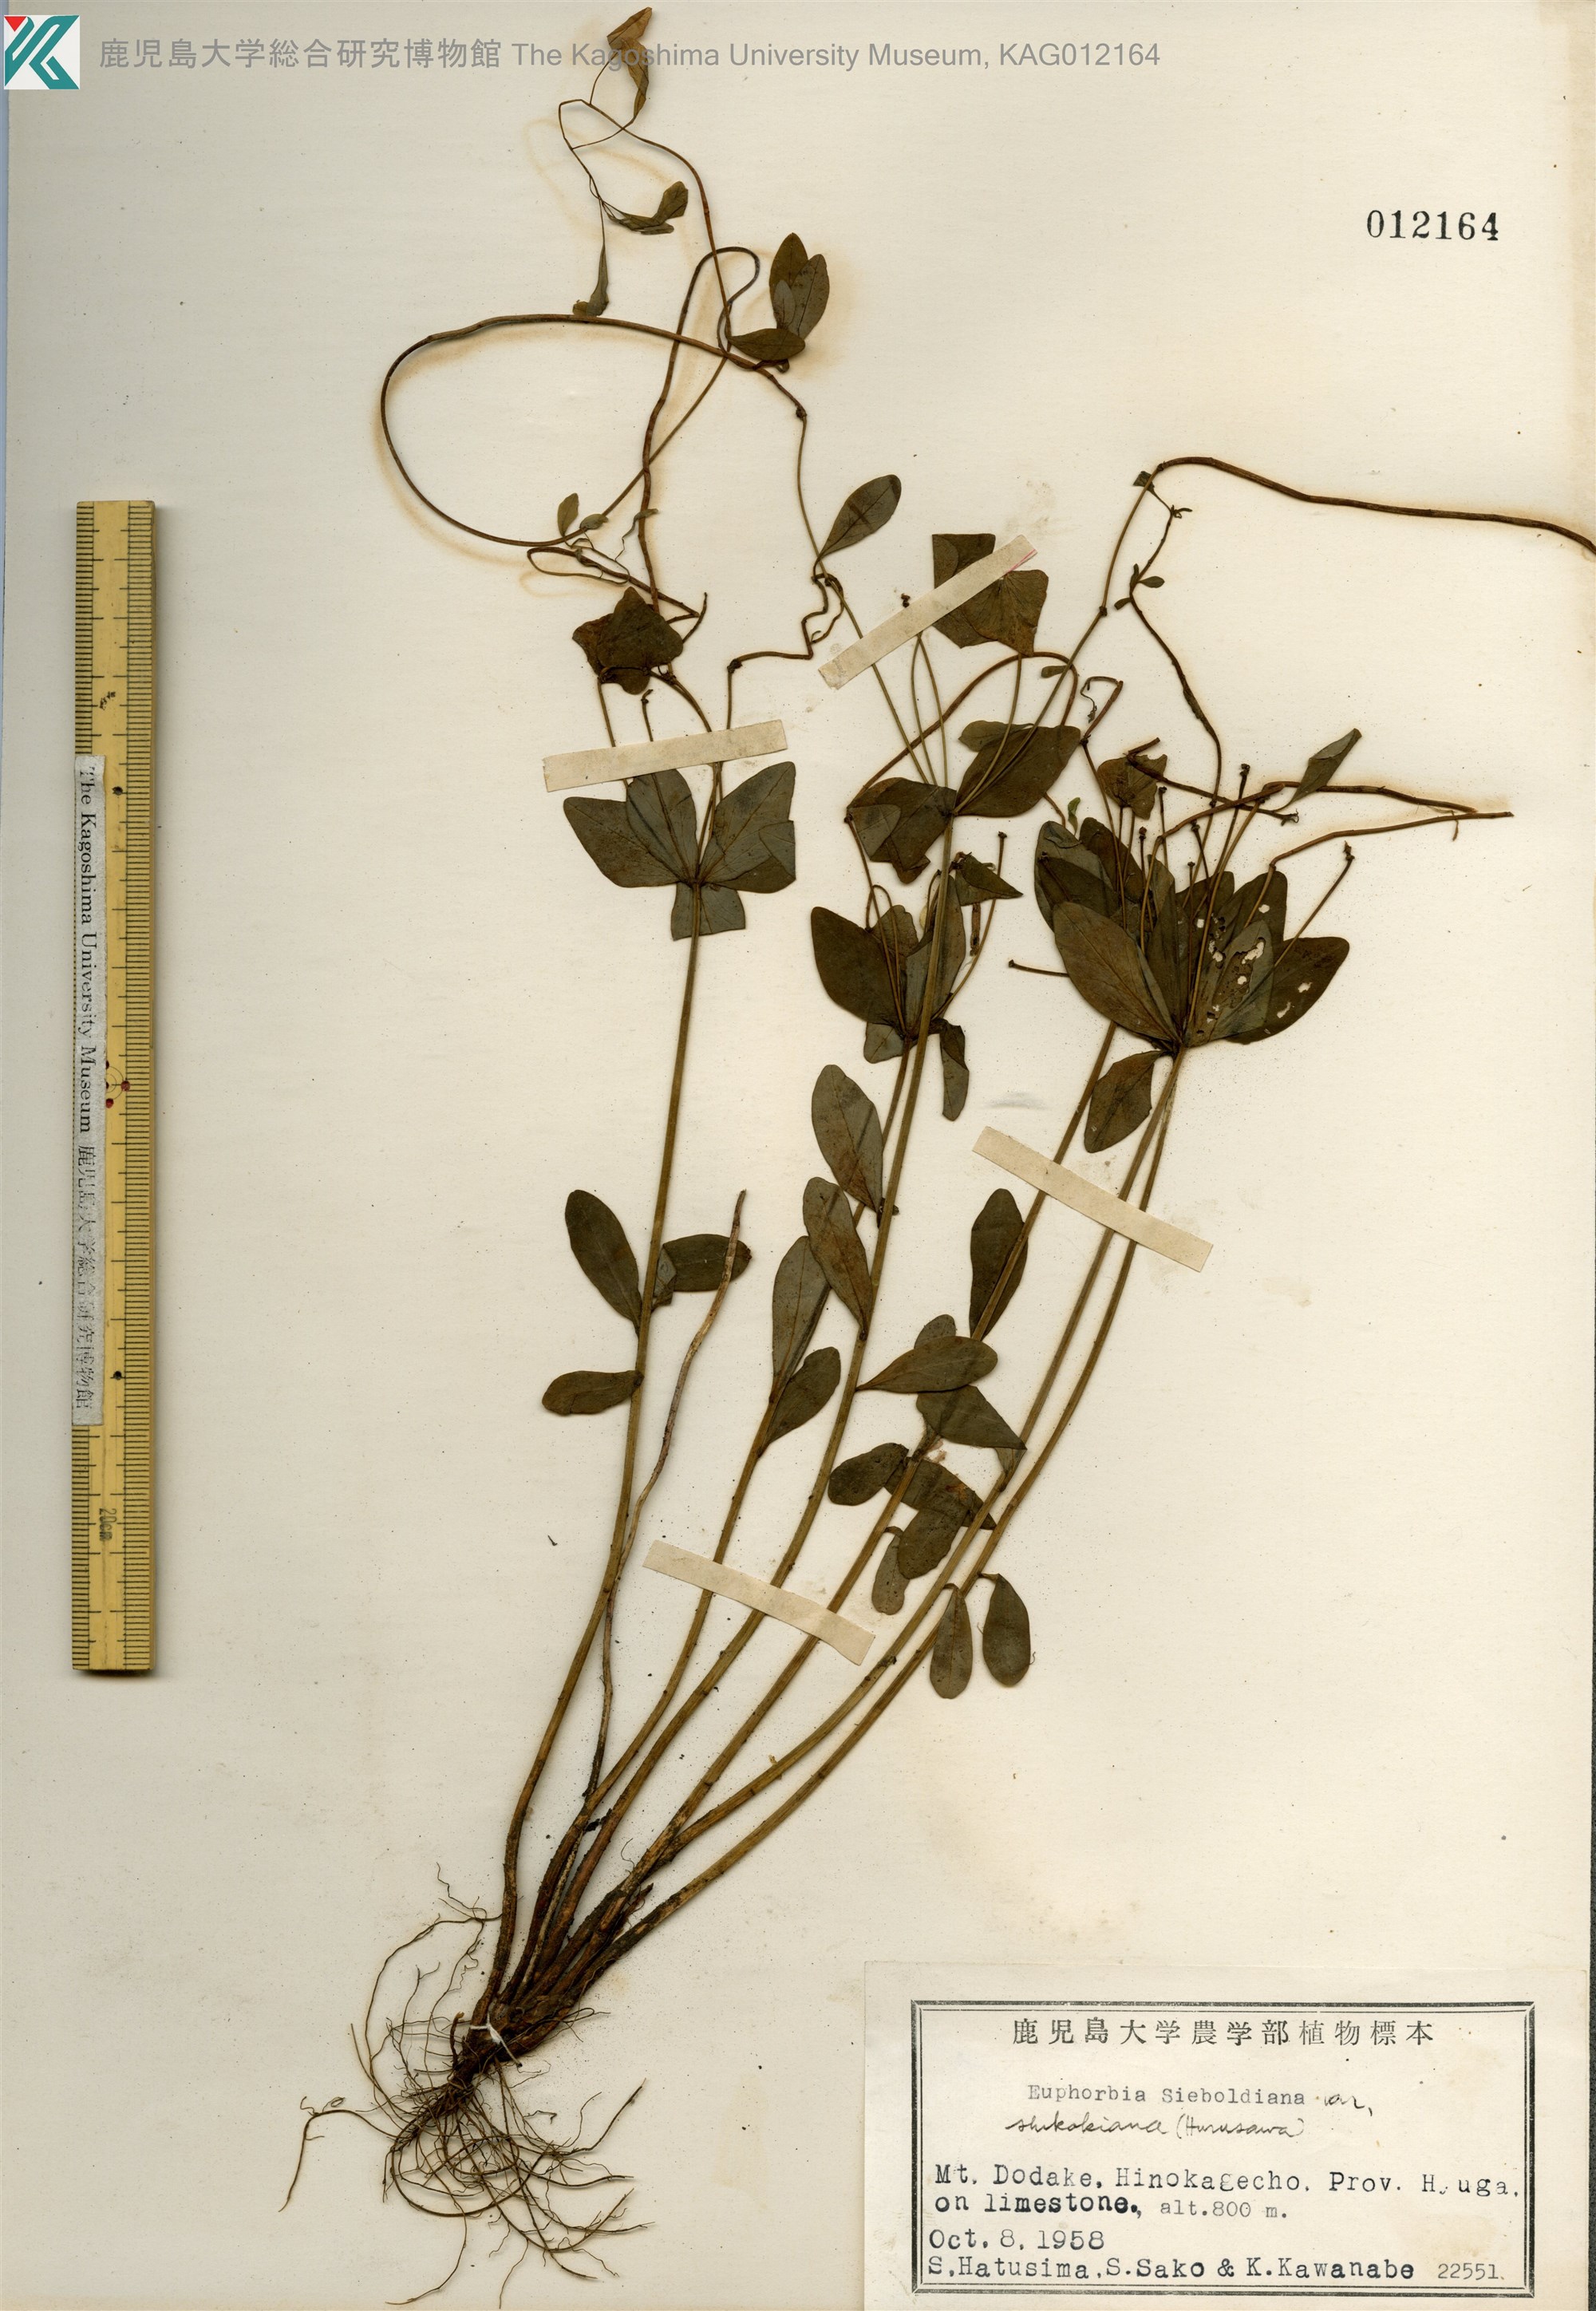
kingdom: Plantae
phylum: Tracheophyta
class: Magnoliopsida
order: Malpighiales
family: Euphorbiaceae
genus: Euphorbia
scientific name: Euphorbia sieboldiana
